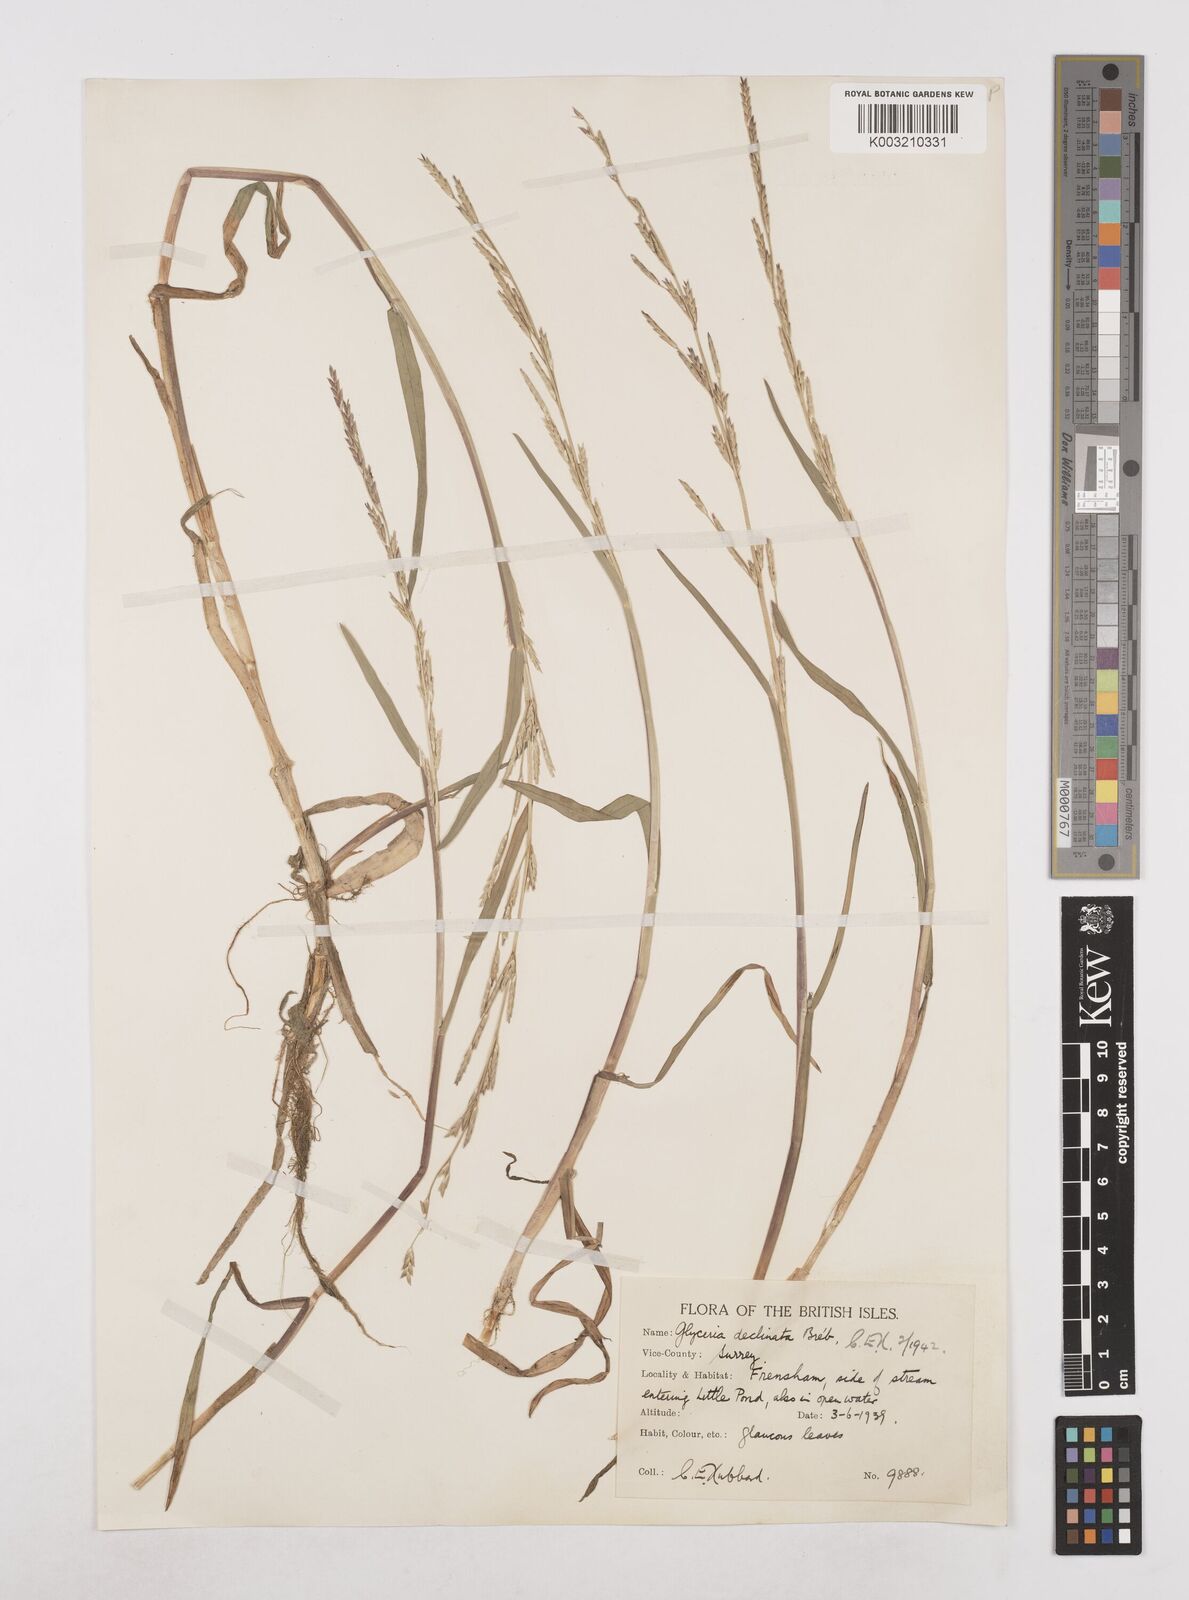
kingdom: Plantae
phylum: Tracheophyta
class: Liliopsida
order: Poales
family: Poaceae
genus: Glyceria
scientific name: Glyceria declinata
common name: Small sweet-grass
